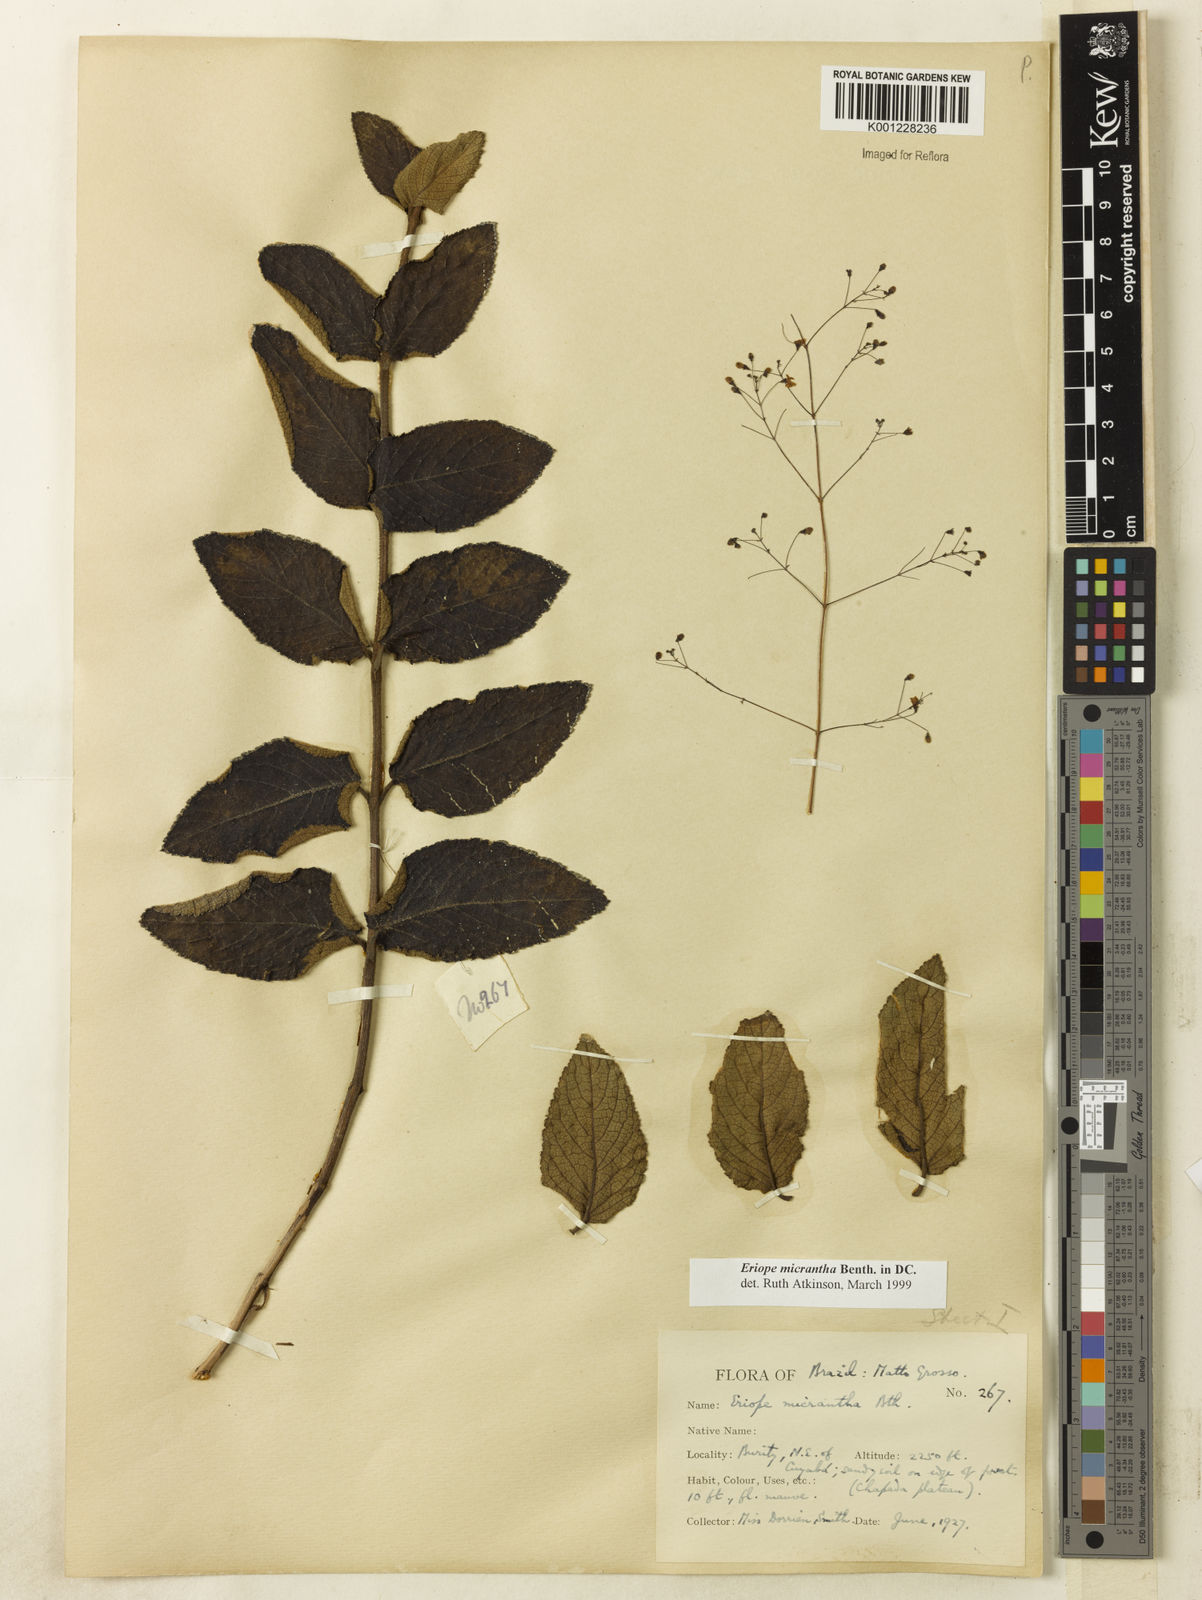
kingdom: Plantae
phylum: Tracheophyta
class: Magnoliopsida
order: Lamiales
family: Lamiaceae
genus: Hypenia
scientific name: Hypenia micrantha
